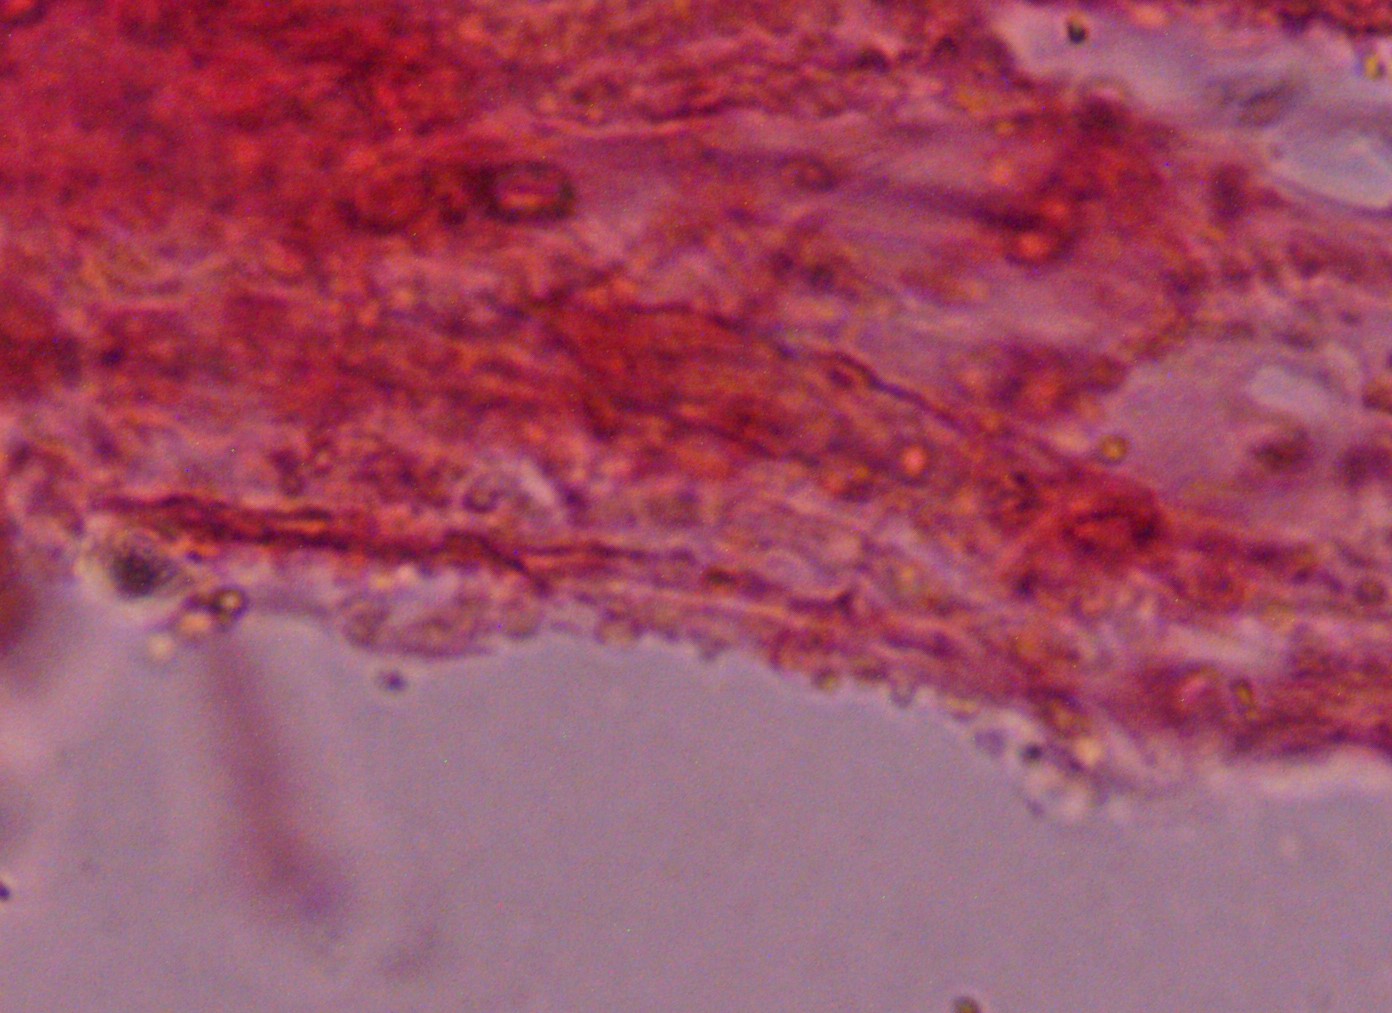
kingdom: Fungi
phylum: Basidiomycota
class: Agaricomycetes
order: Agaricales
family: Mycenaceae
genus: Mycena
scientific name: Mycena flavescens
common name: grågul huesvamp
